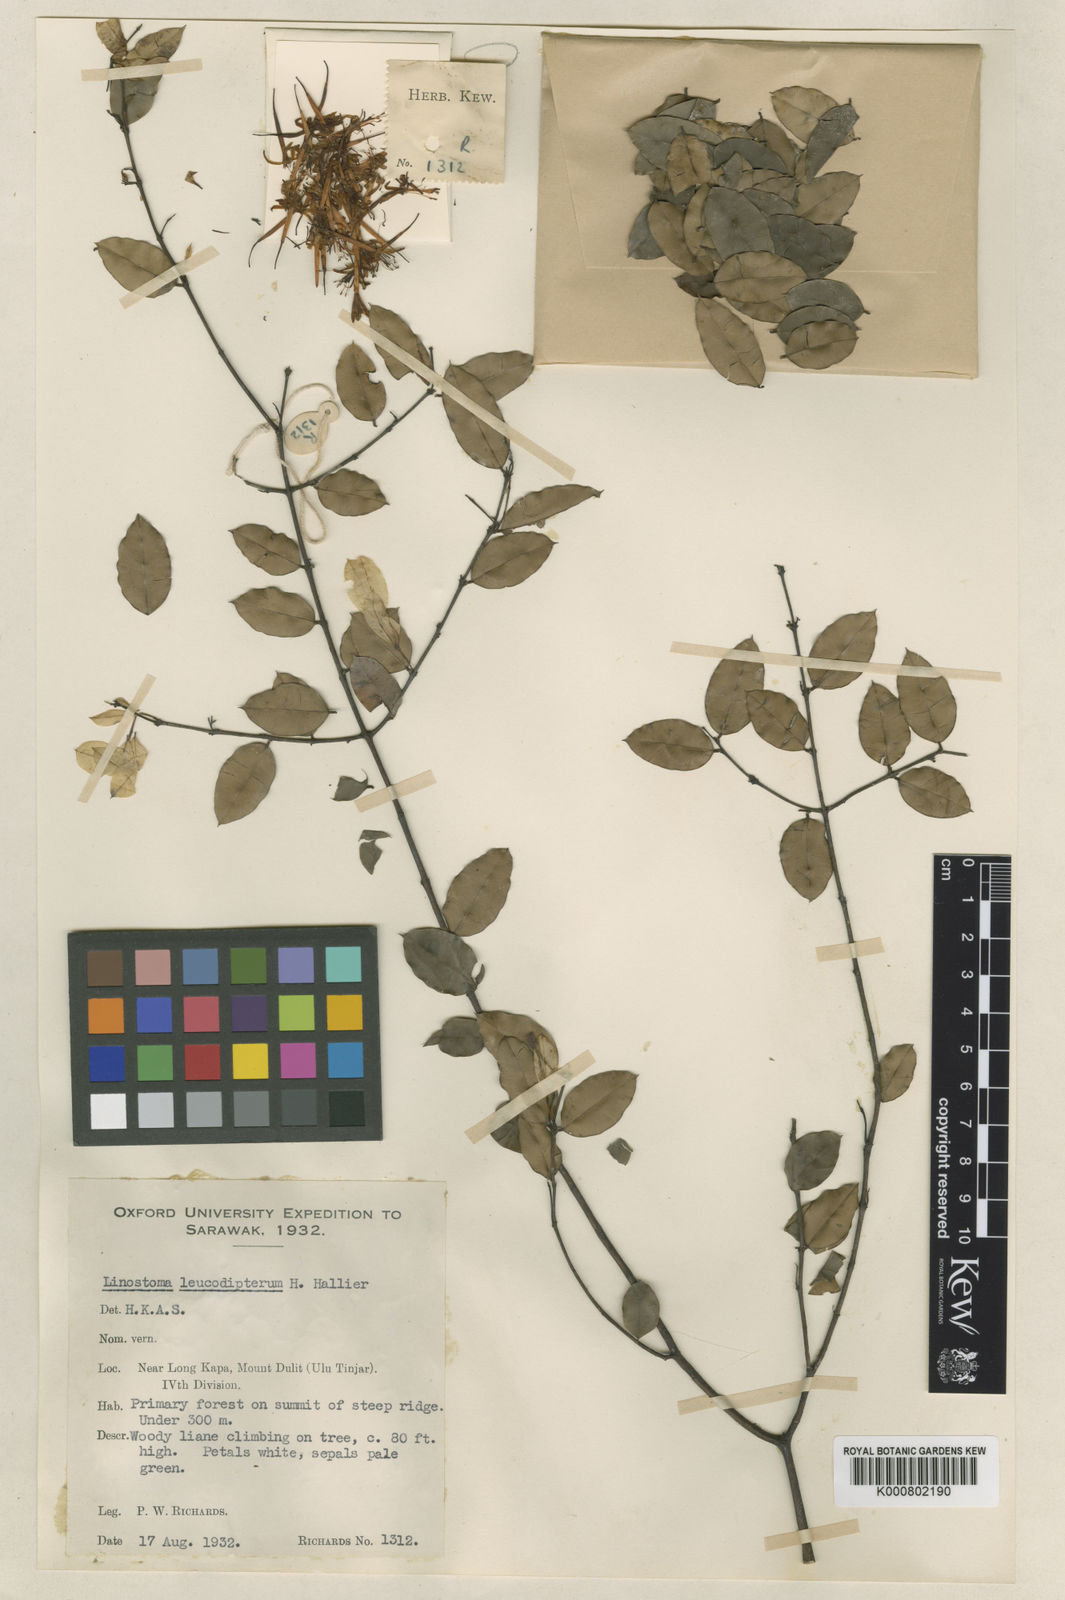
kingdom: Plantae
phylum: Tracheophyta
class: Magnoliopsida
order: Malvales
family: Thymelaeaceae
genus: Linostoma
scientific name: Linostoma pauciflorum
